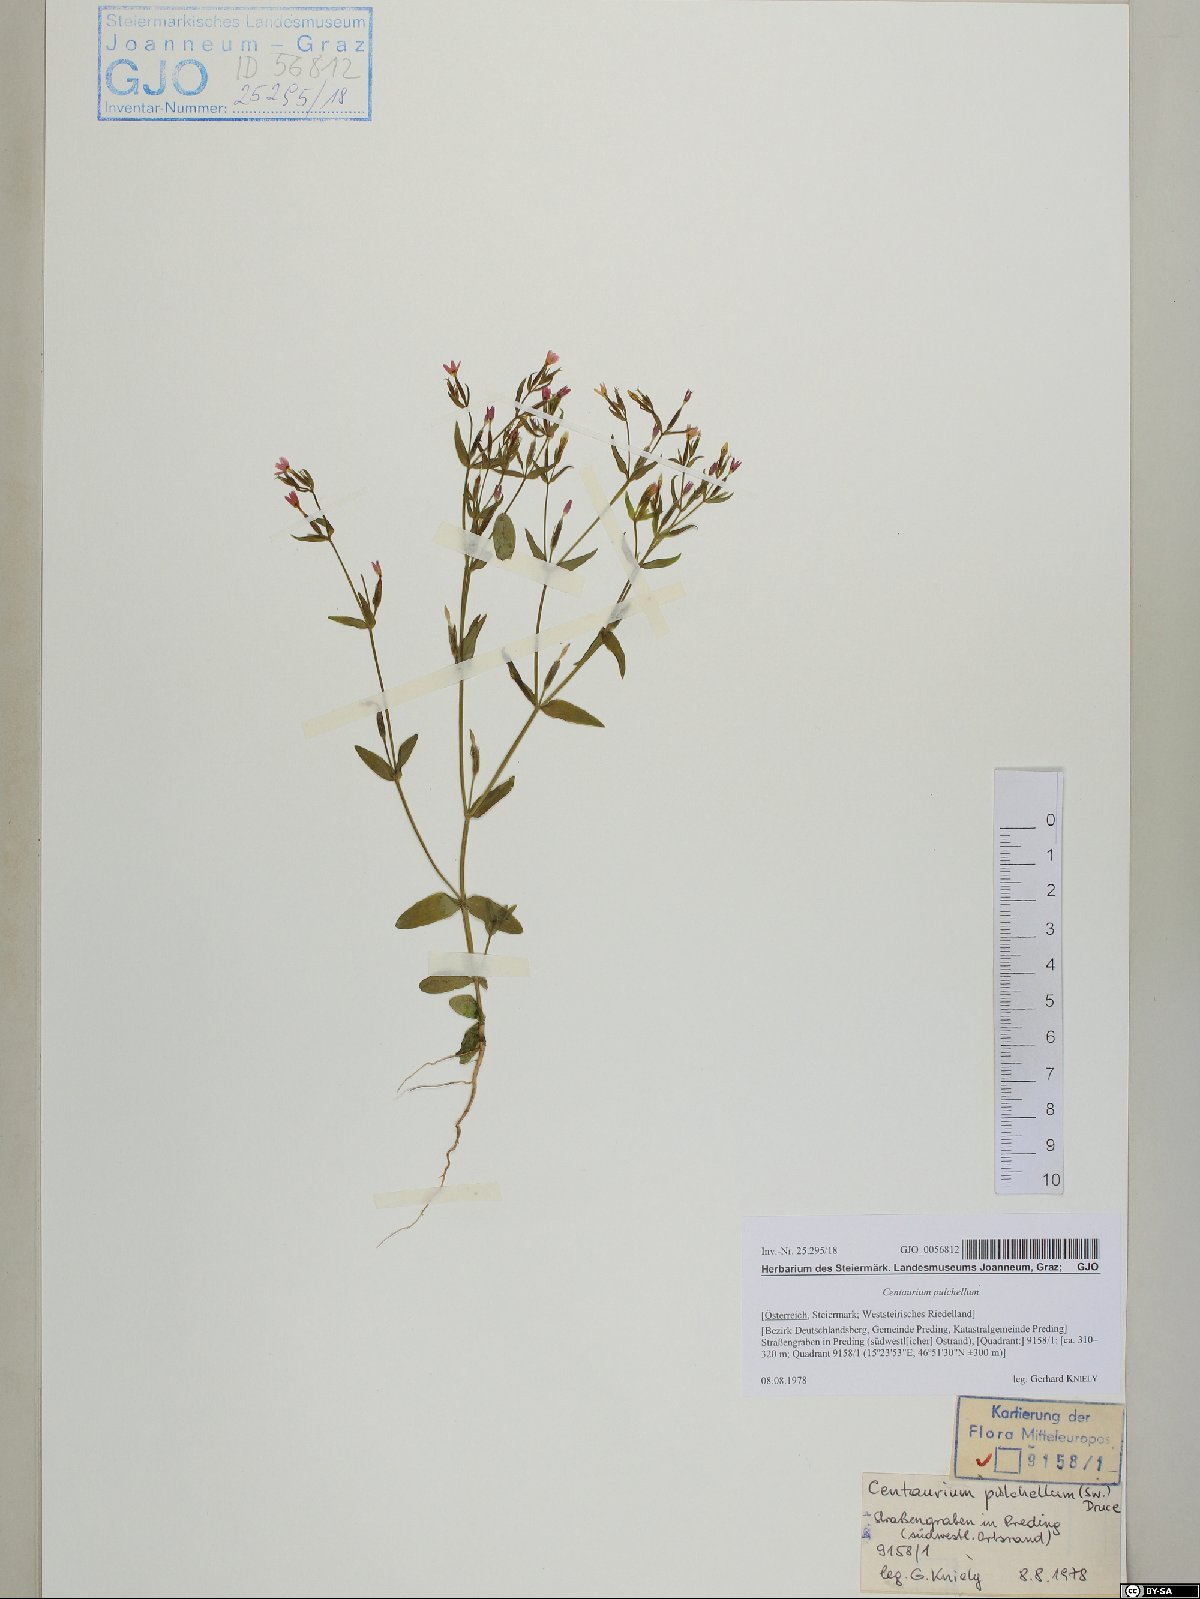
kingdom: Plantae
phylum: Tracheophyta
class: Magnoliopsida
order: Gentianales
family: Gentianaceae
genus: Centaurium
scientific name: Centaurium pulchellum
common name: Lesser centaury
